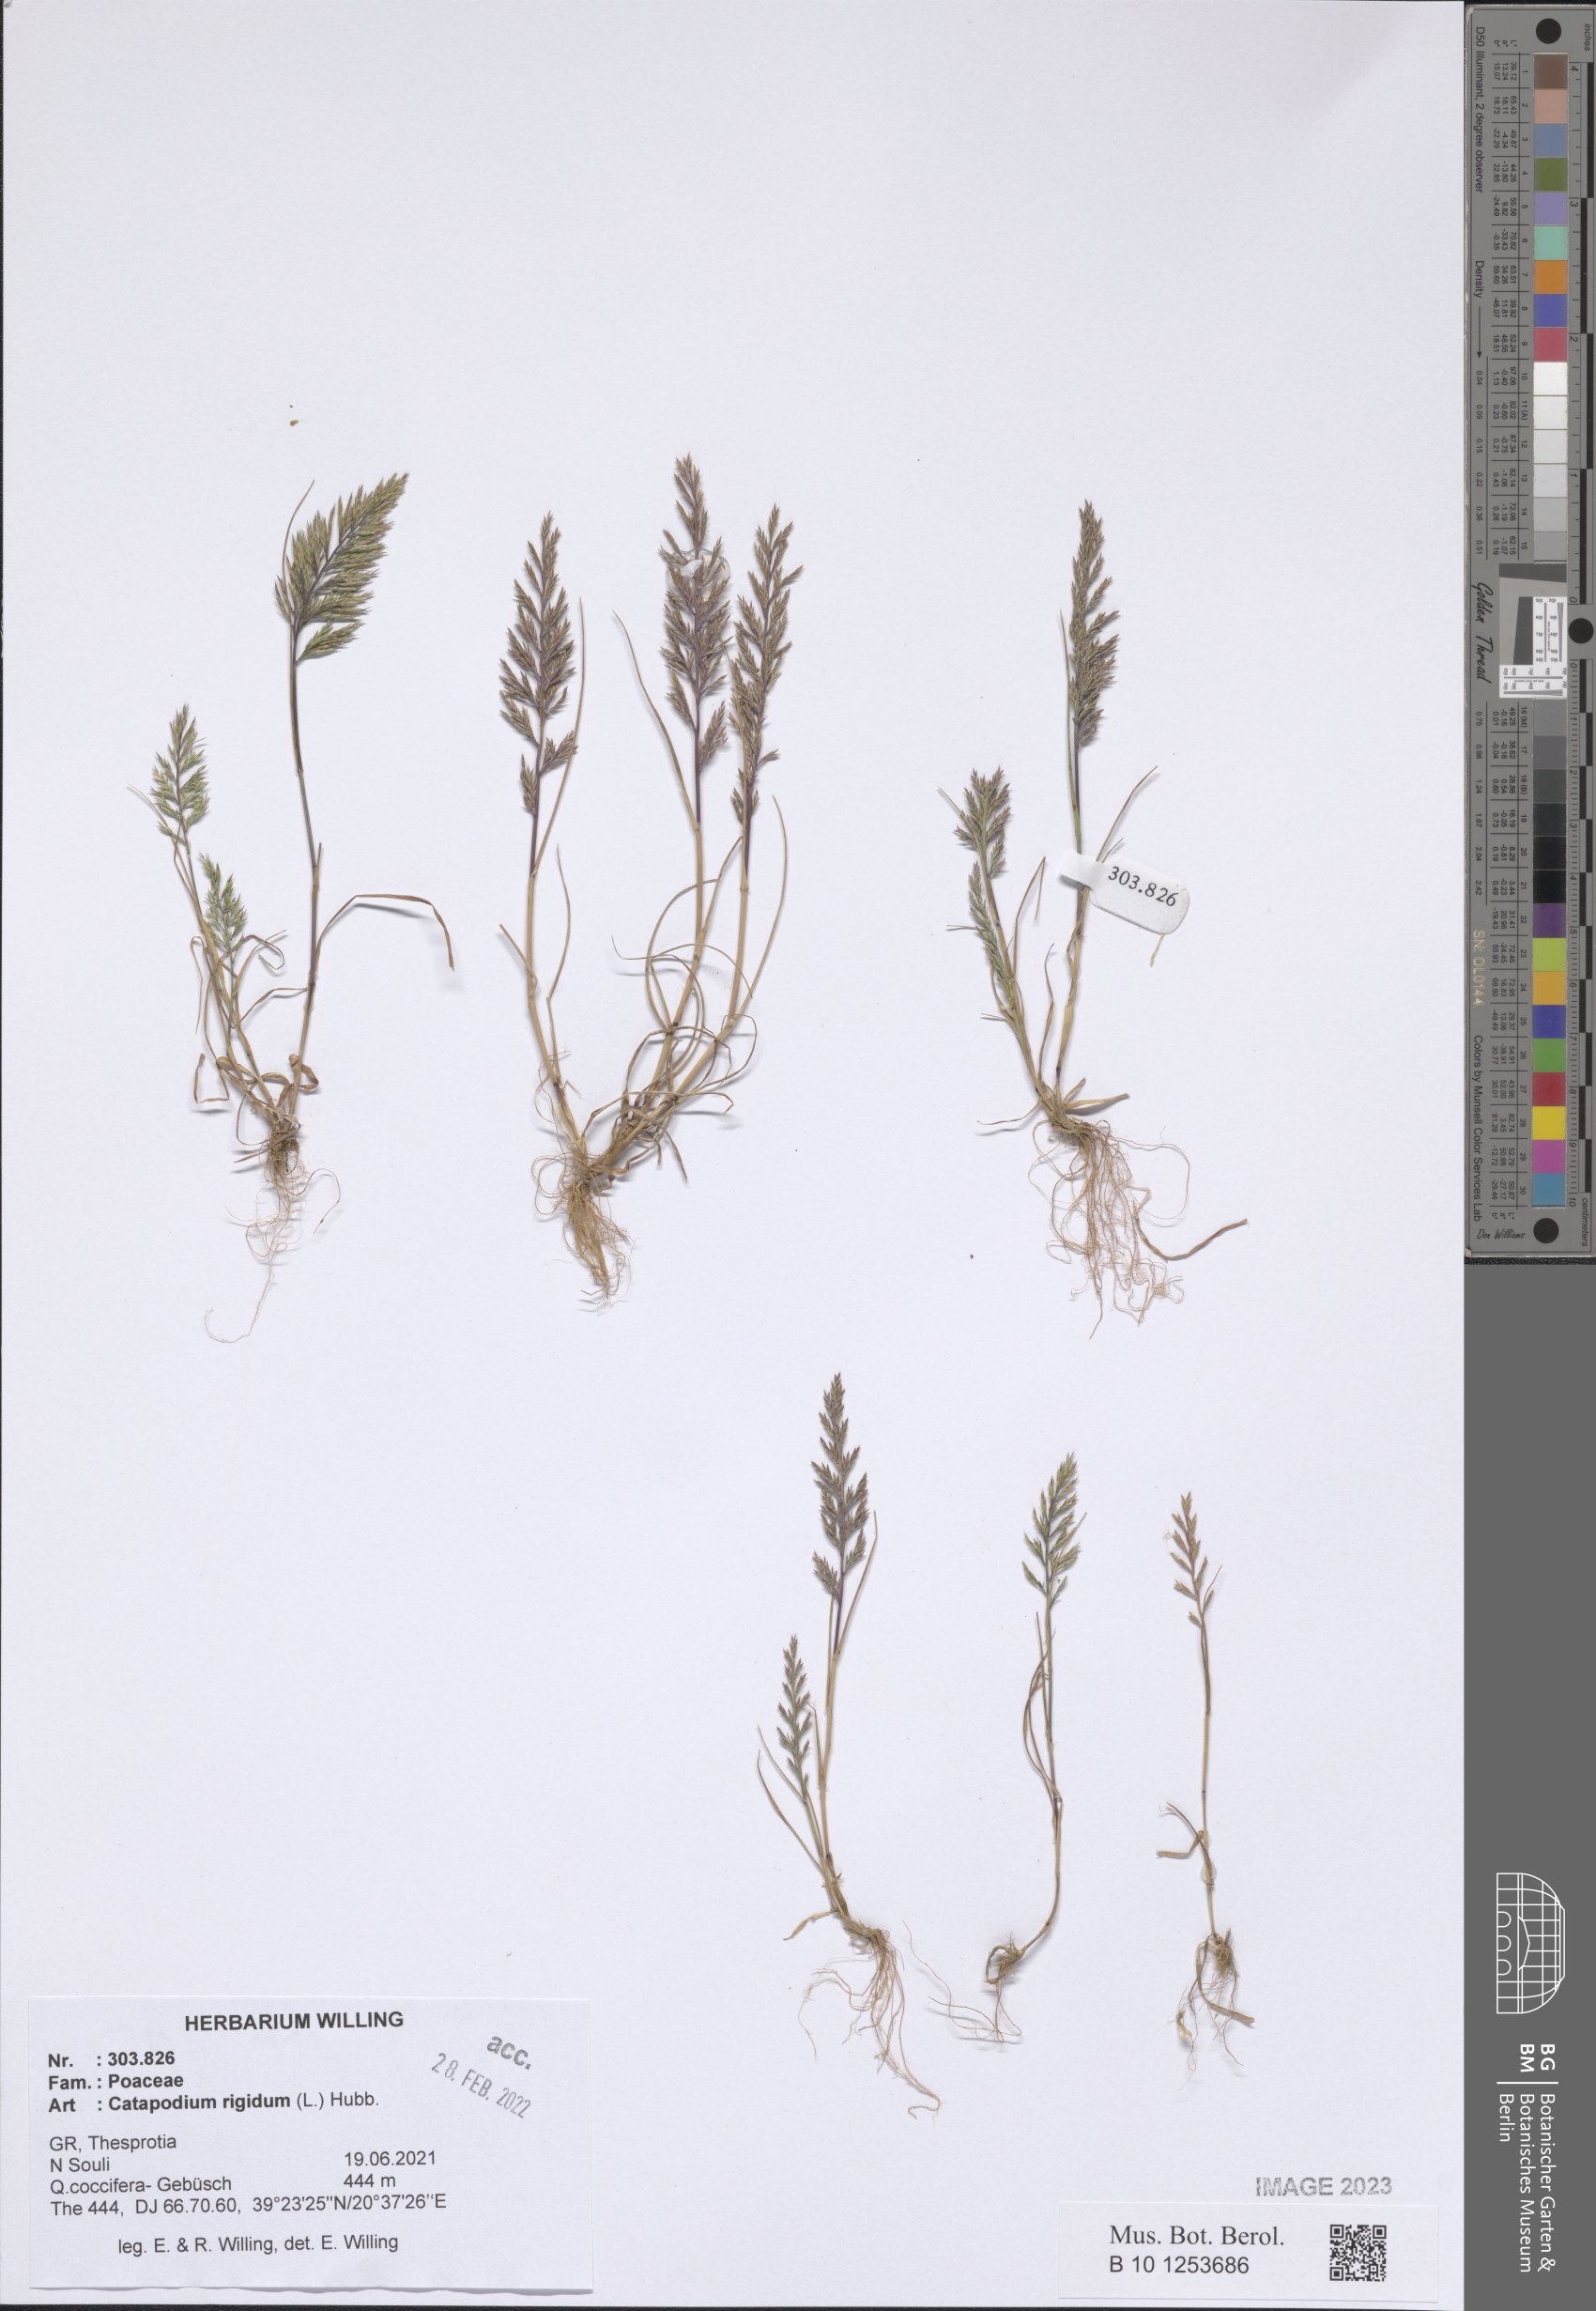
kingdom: Plantae
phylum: Tracheophyta
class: Liliopsida
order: Poales
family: Poaceae
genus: Catapodium
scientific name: Catapodium rigidum
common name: Fern-grass
